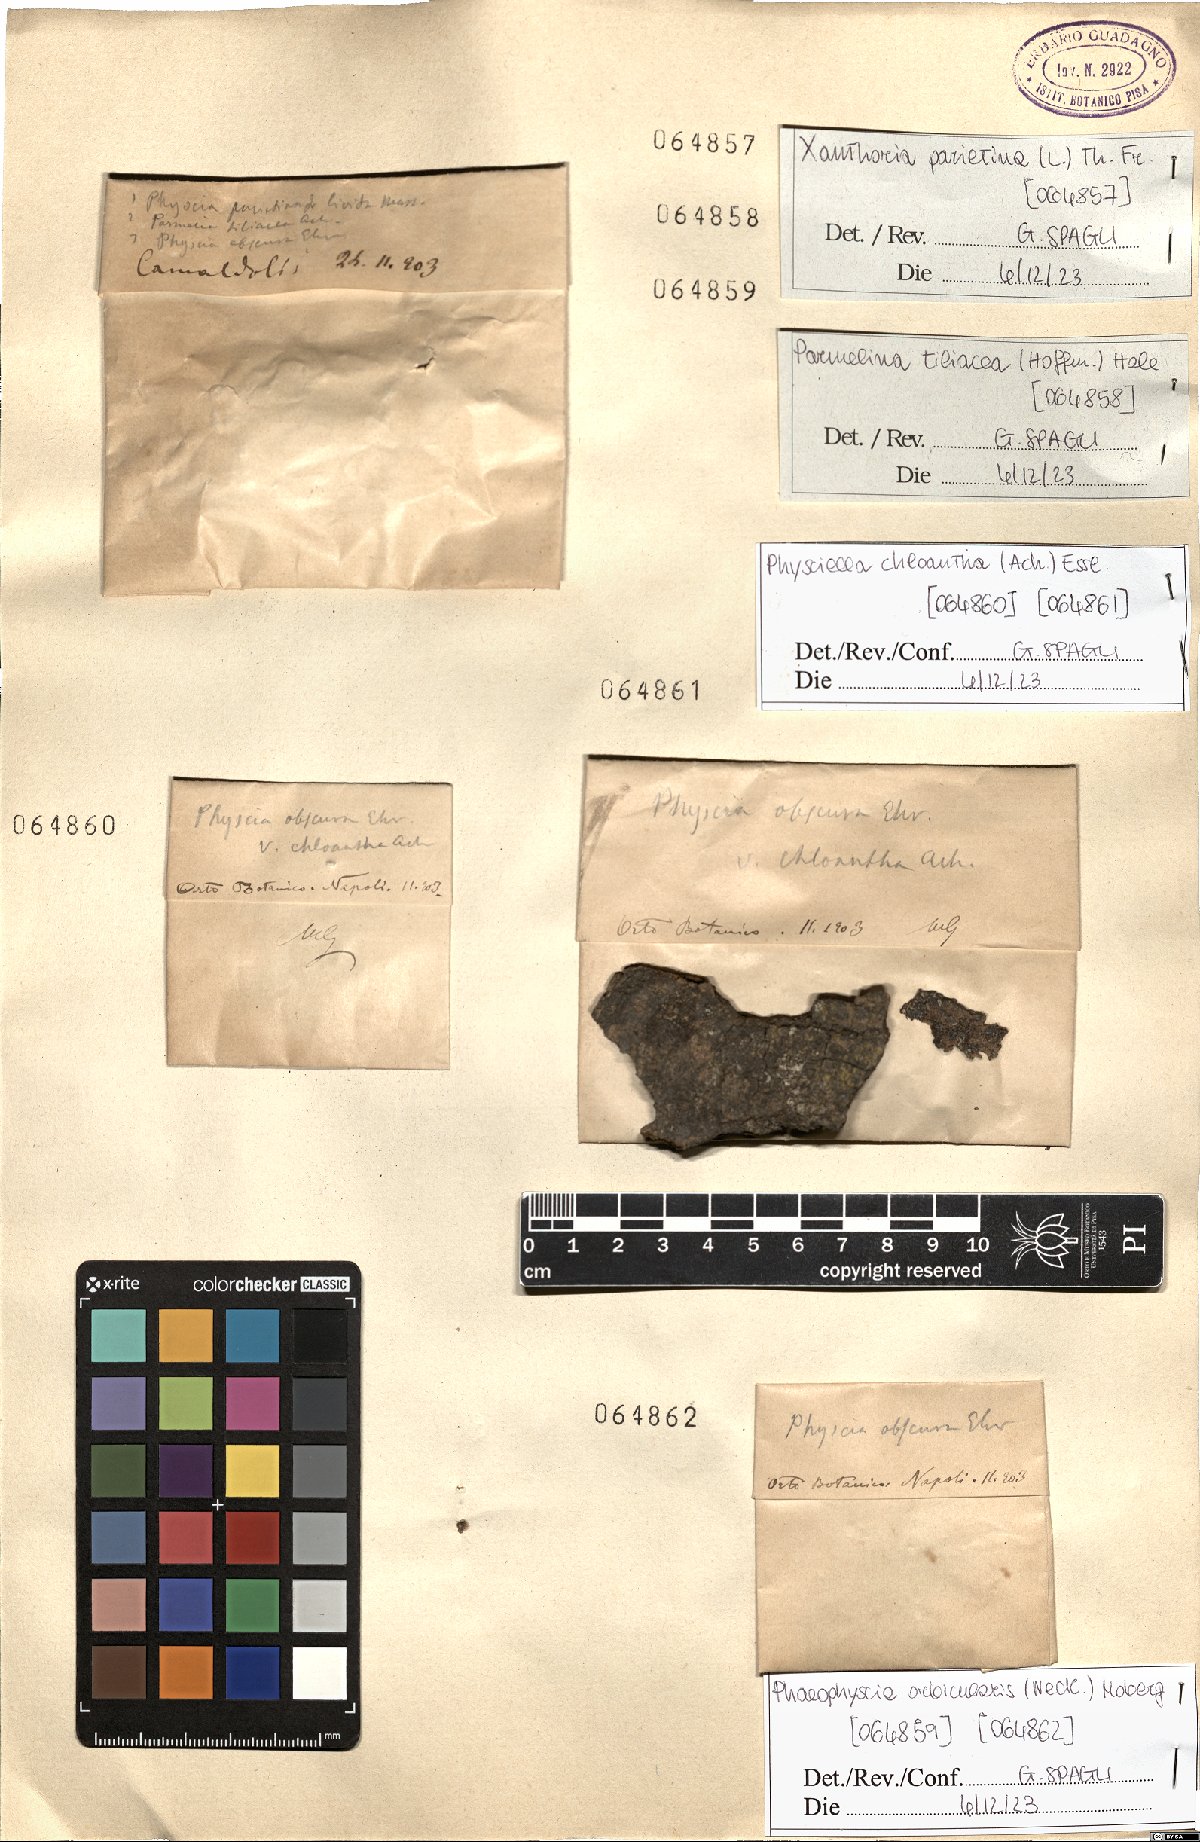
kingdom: Fungi
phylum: Ascomycota
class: Lecanoromycetes
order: Caliciales
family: Physciaceae
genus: Physciella
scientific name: Physciella chloantha
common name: Cryptic rosette lichen
